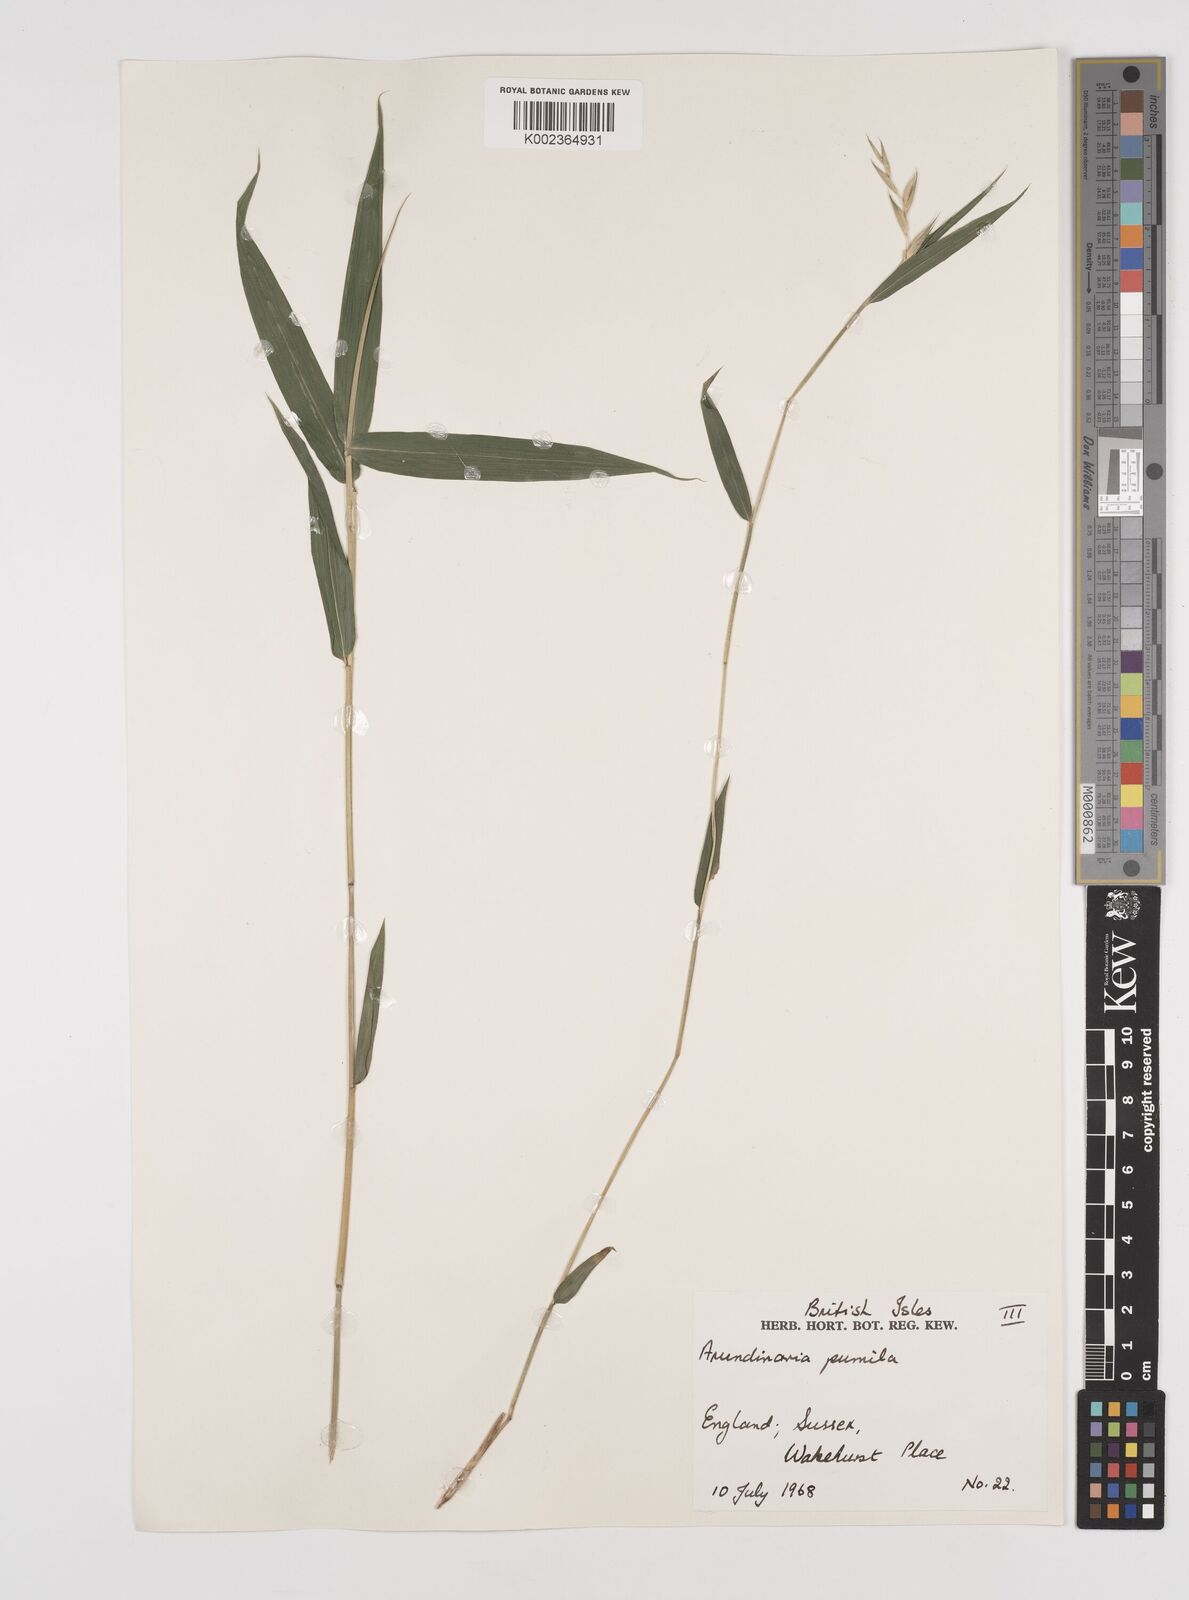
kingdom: Plantae
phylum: Tracheophyta
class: Liliopsida
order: Poales
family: Poaceae
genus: Pleioblastus
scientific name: Pleioblastus argenteostriatus
